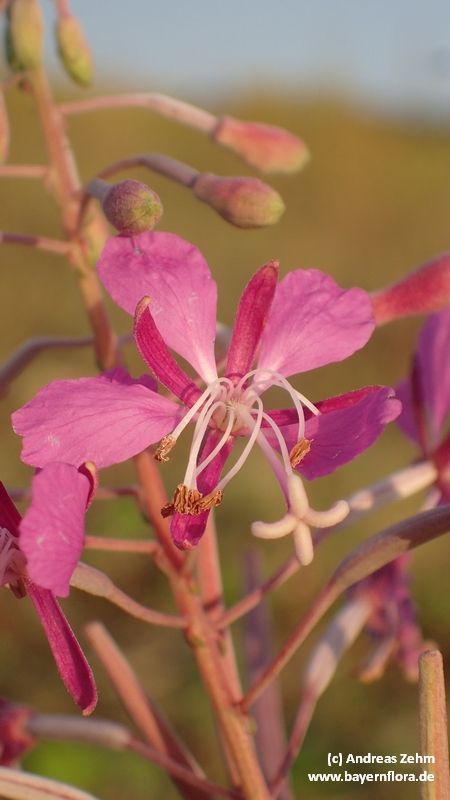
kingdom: Plantae
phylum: Tracheophyta
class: Magnoliopsida
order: Myrtales
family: Onagraceae
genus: Chamaenerion
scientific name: Chamaenerion angustifolium
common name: Fireweed
